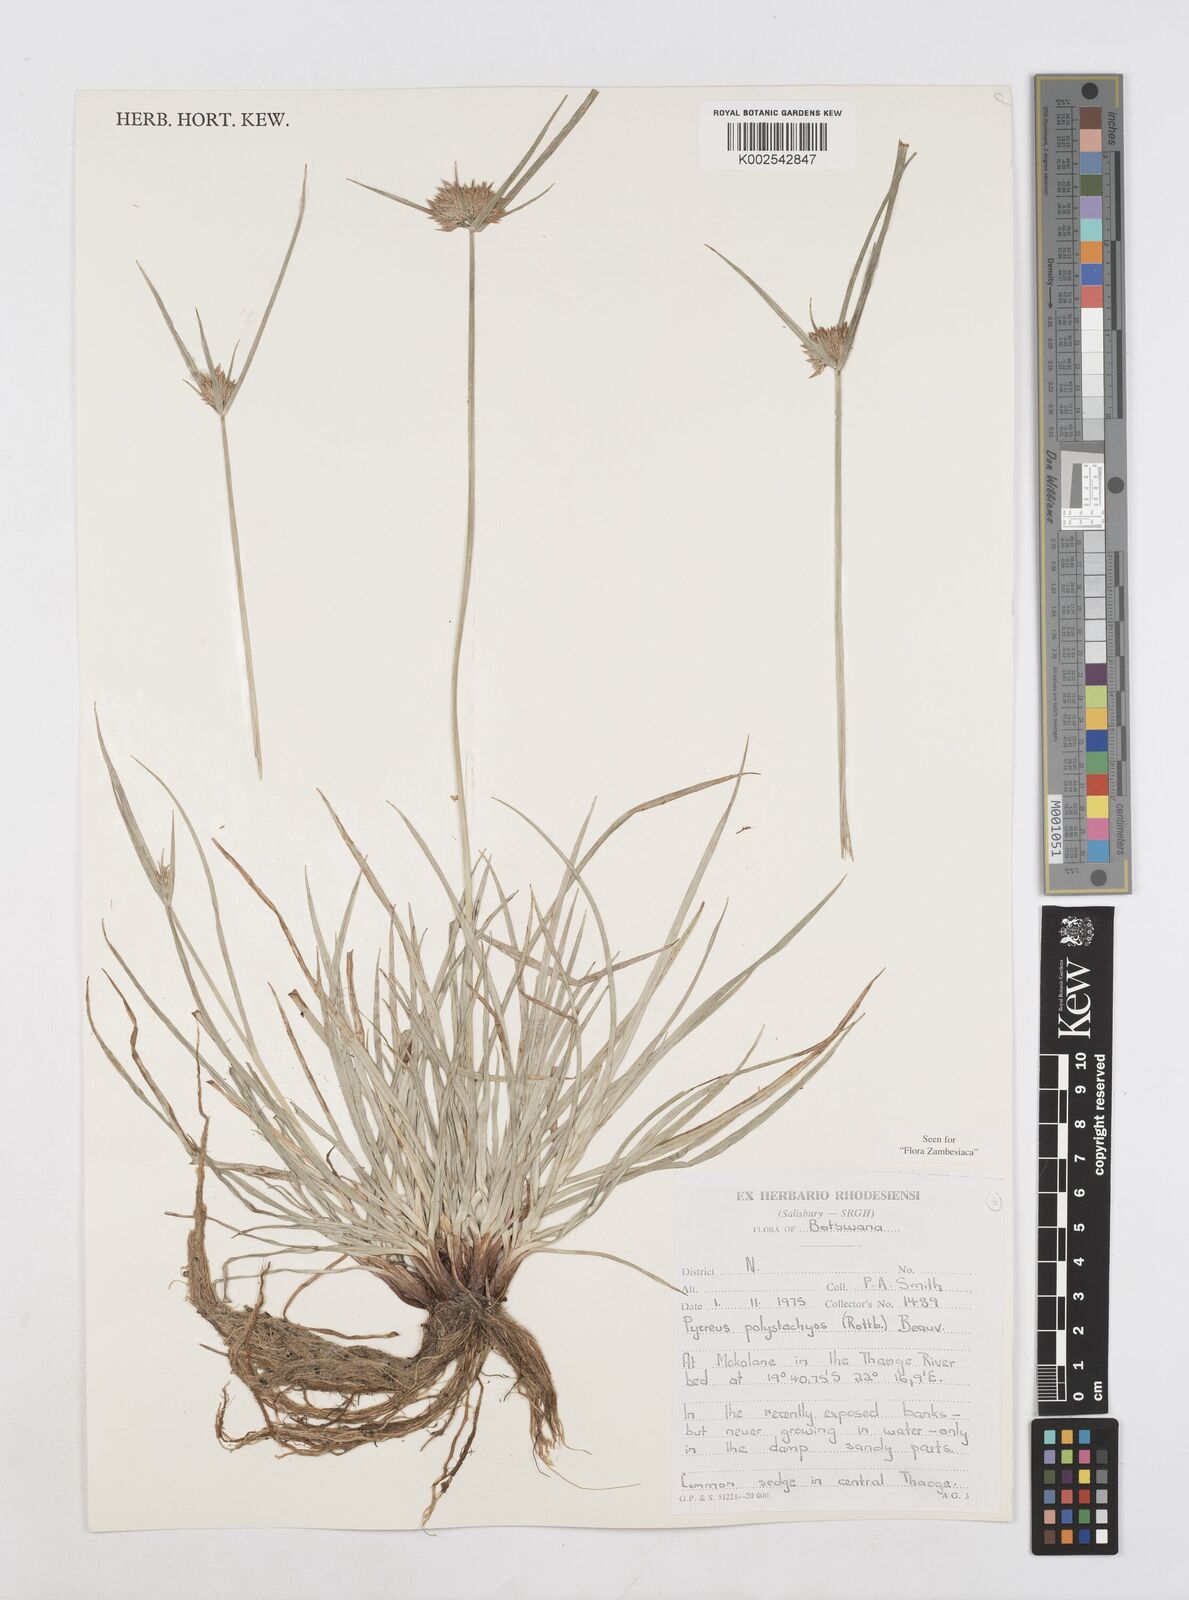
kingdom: Plantae
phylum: Tracheophyta
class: Liliopsida
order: Poales
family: Cyperaceae
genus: Cyperus
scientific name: Cyperus polystachyos
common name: Bunchy flat sedge
